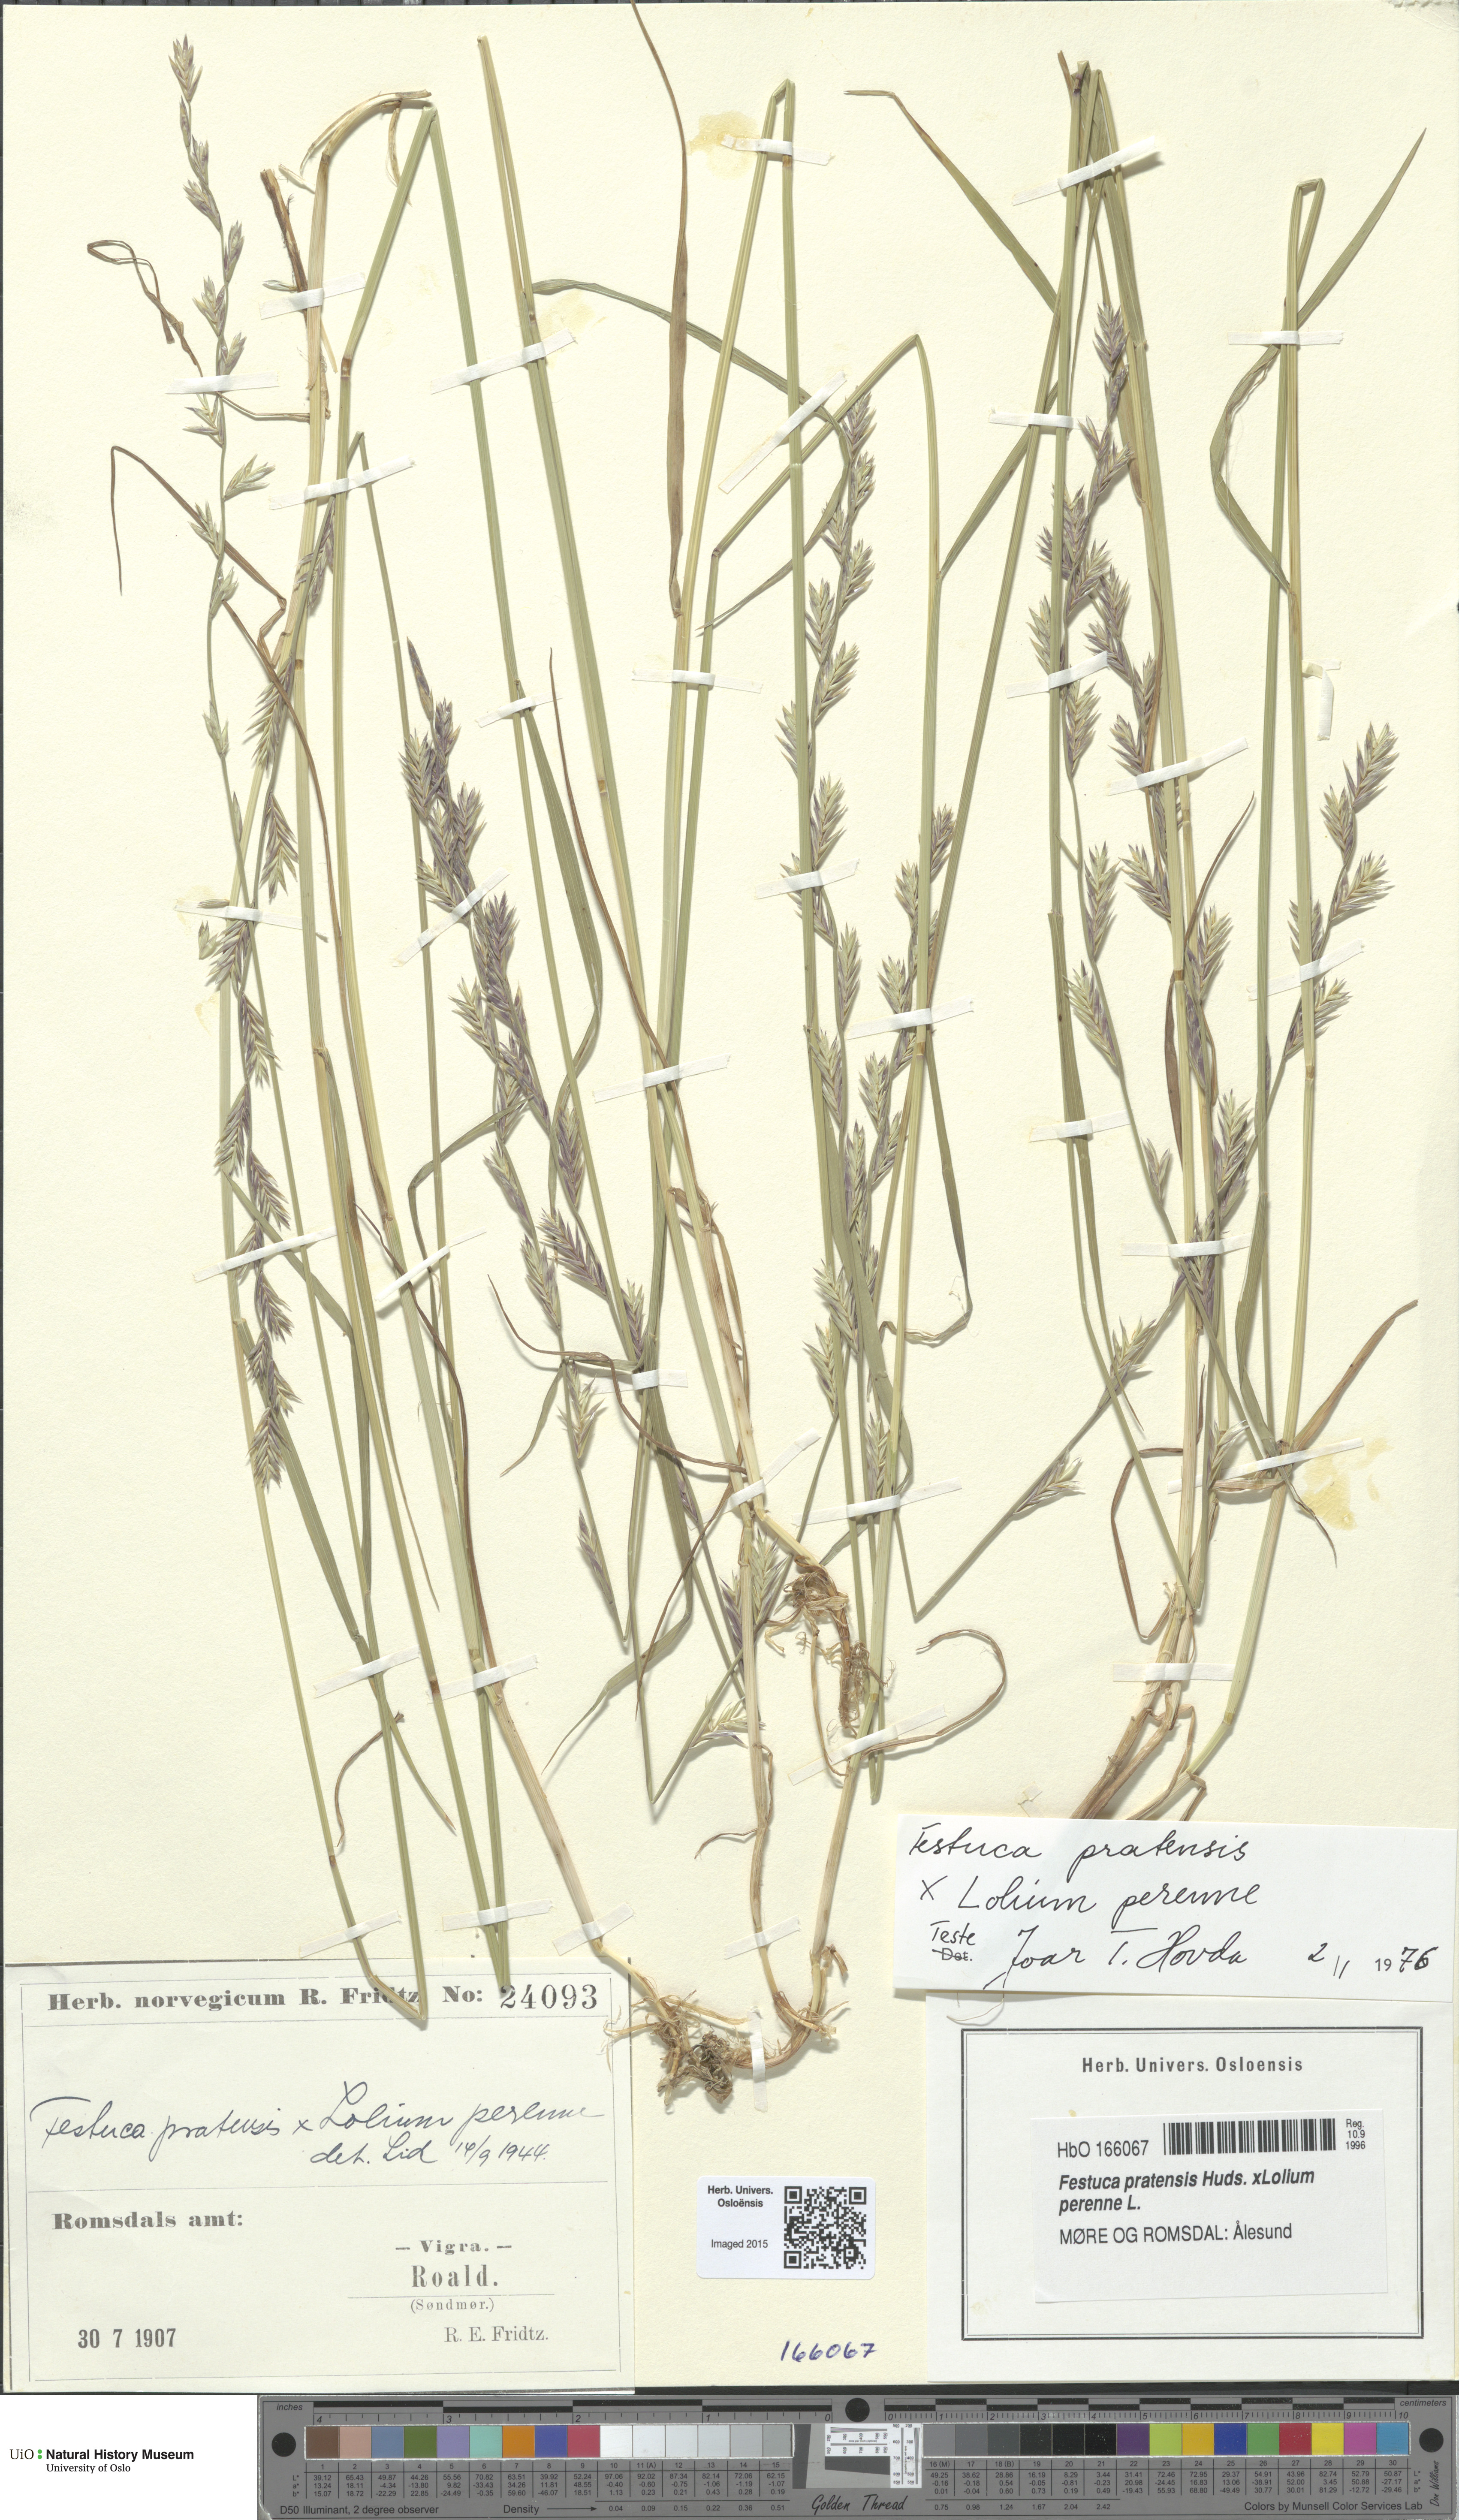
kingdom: Plantae
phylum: Tracheophyta
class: Liliopsida
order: Poales
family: Poaceae
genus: Lolium
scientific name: Lolium
